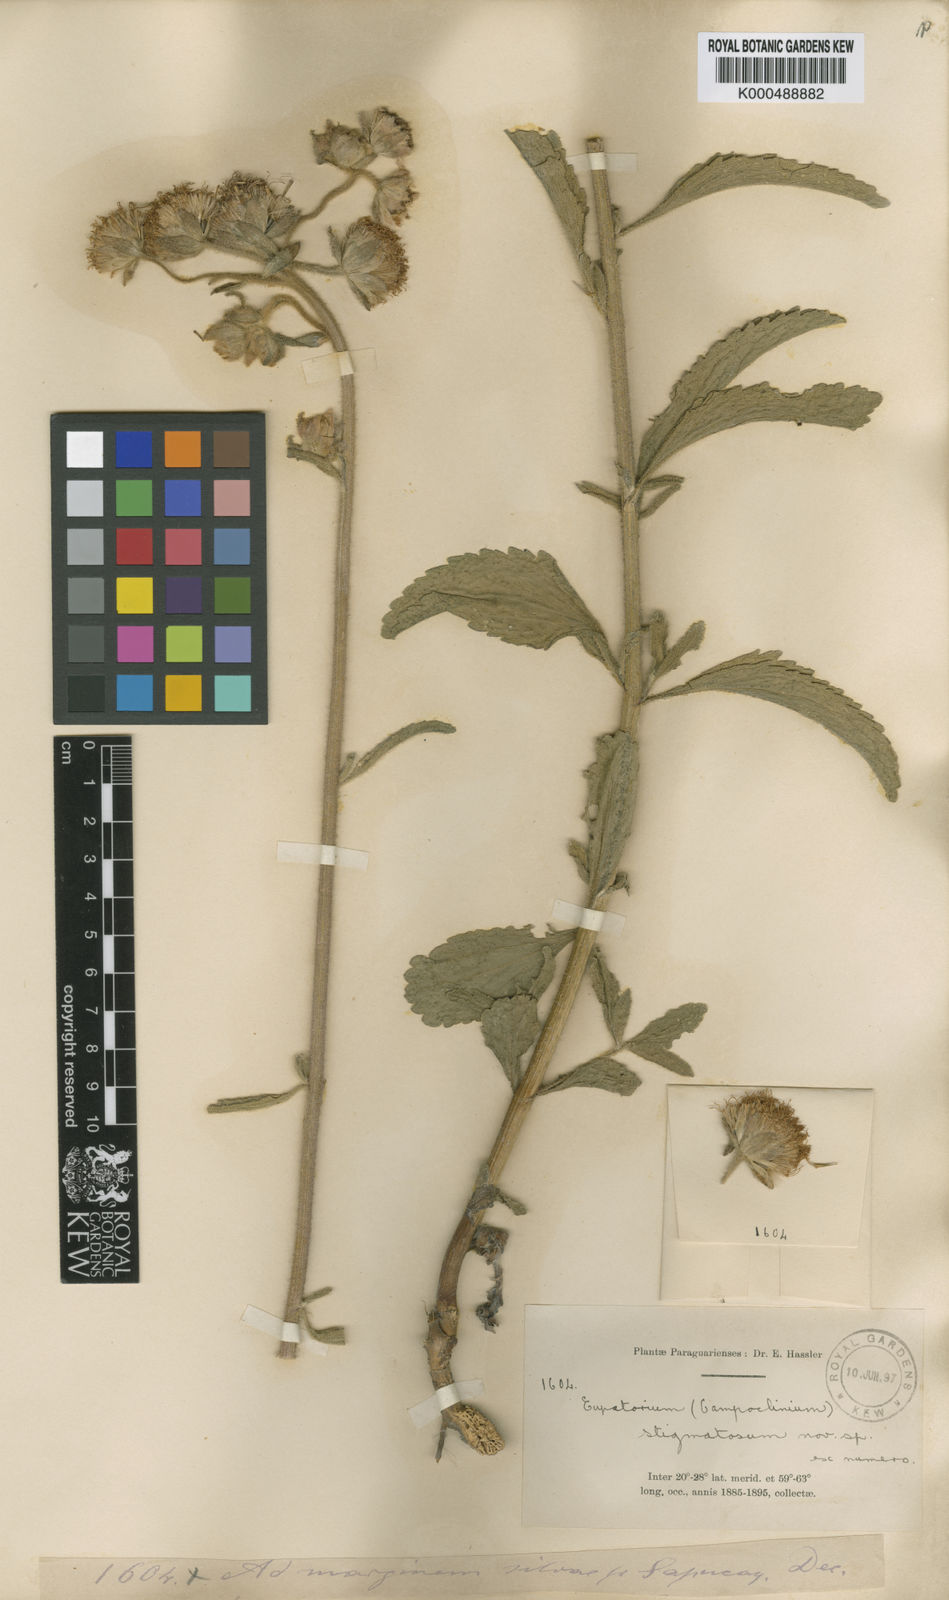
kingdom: Plantae
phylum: Tracheophyta
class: Magnoliopsida
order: Asterales
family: Asteraceae
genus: Campuloclinium
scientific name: Campuloclinium
